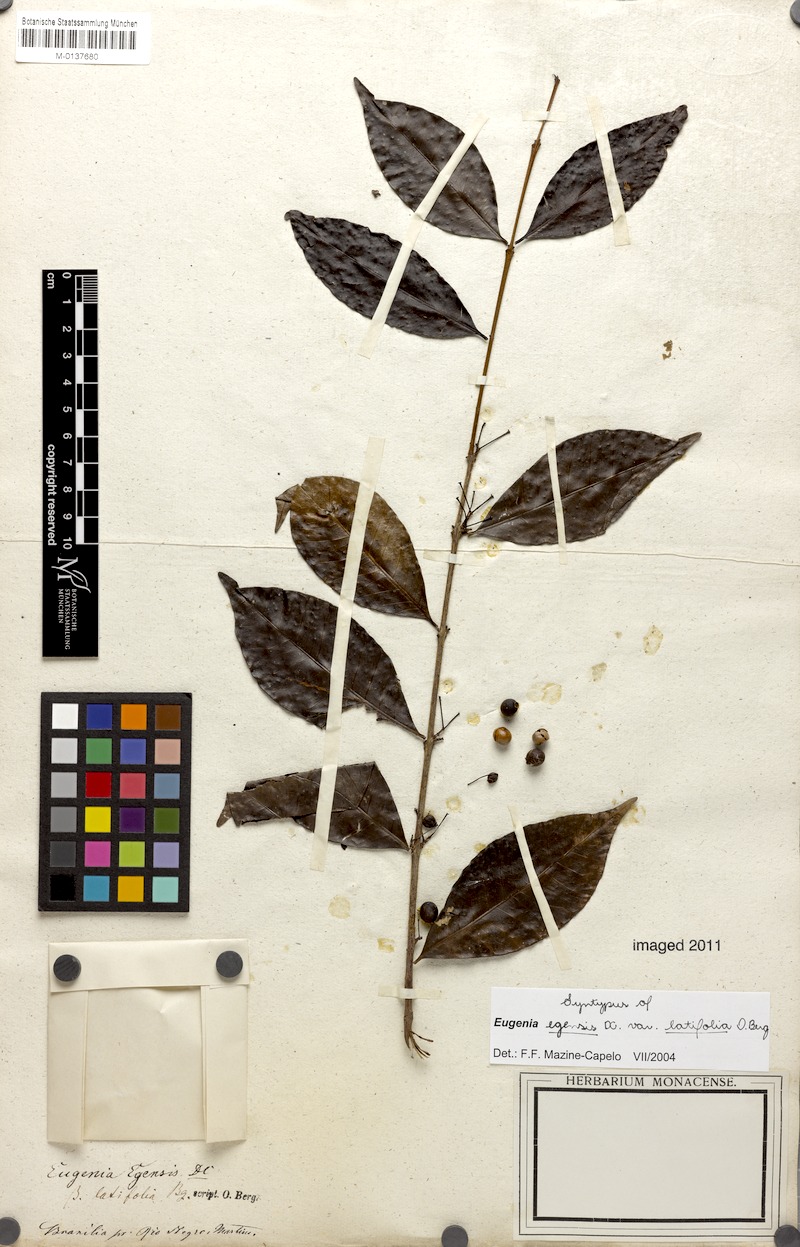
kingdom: Plantae
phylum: Tracheophyta
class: Magnoliopsida
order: Myrtales
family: Myrtaceae
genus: Eugenia
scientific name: Eugenia egensis
